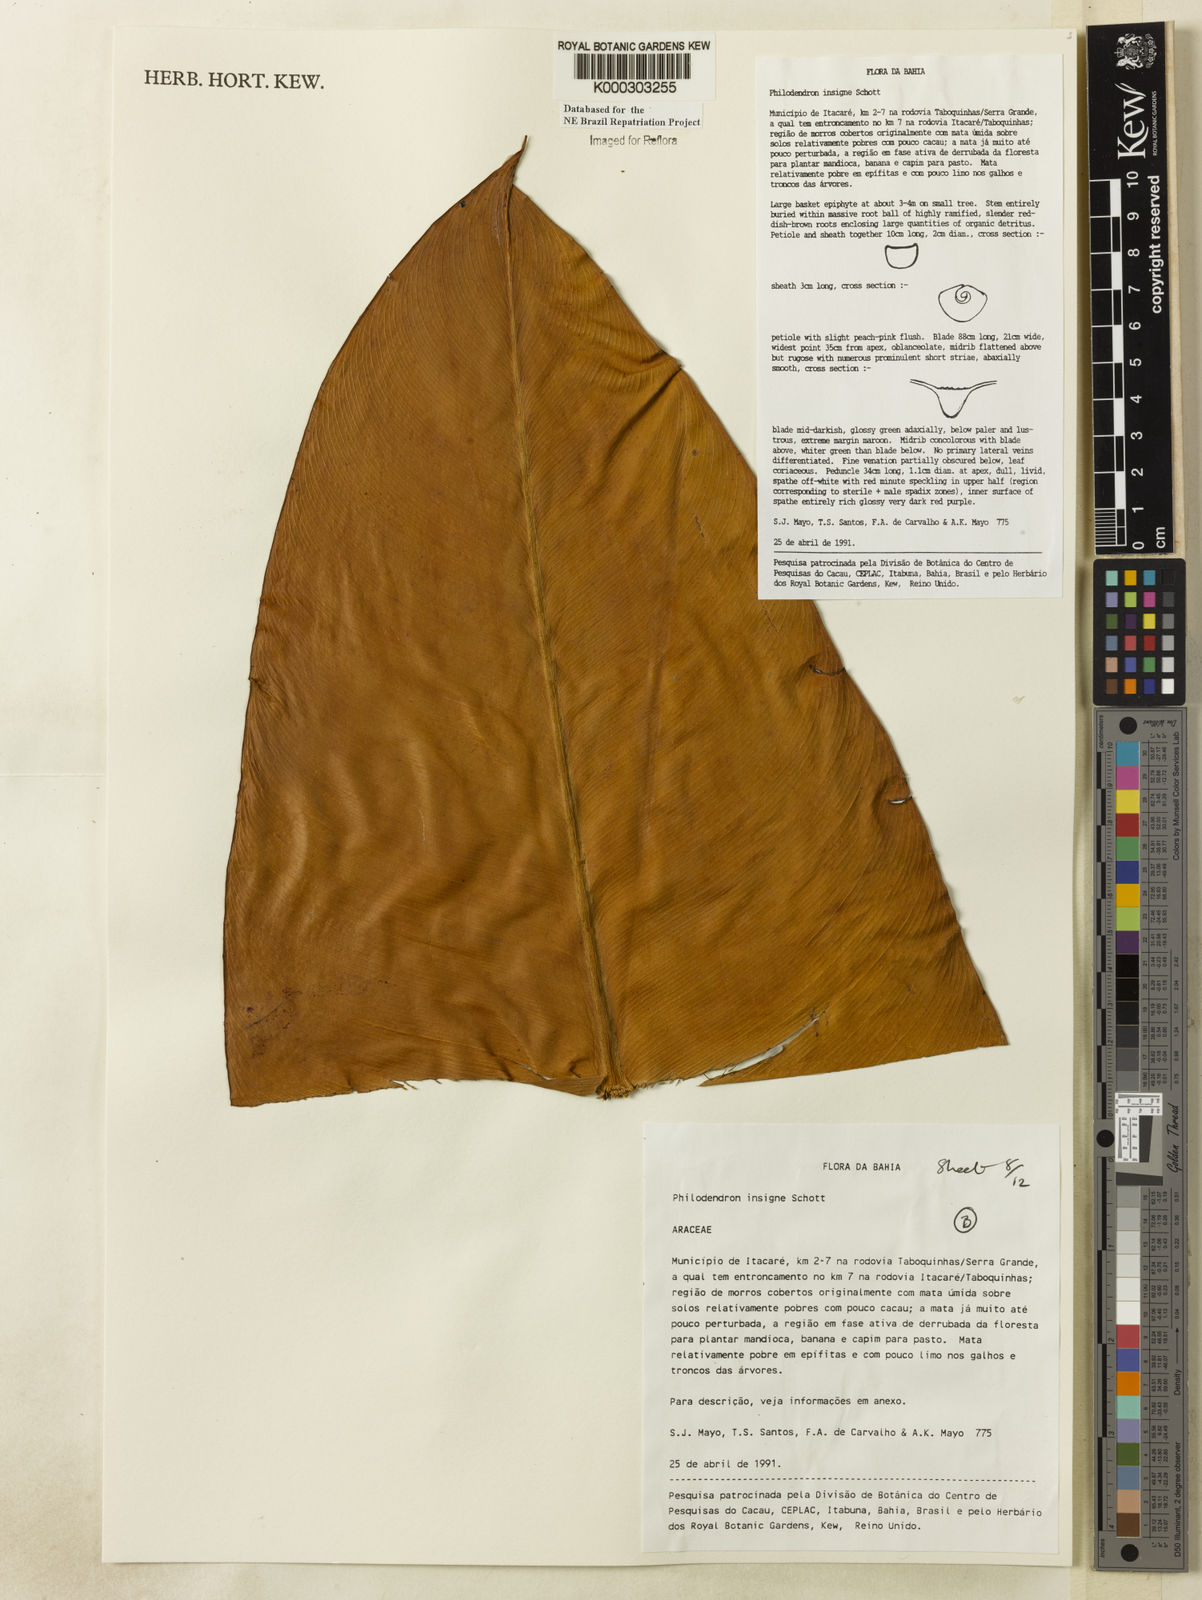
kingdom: Plantae
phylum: Tracheophyta
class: Liliopsida
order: Alismatales
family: Araceae
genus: Philodendron
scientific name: Philodendron insigne
